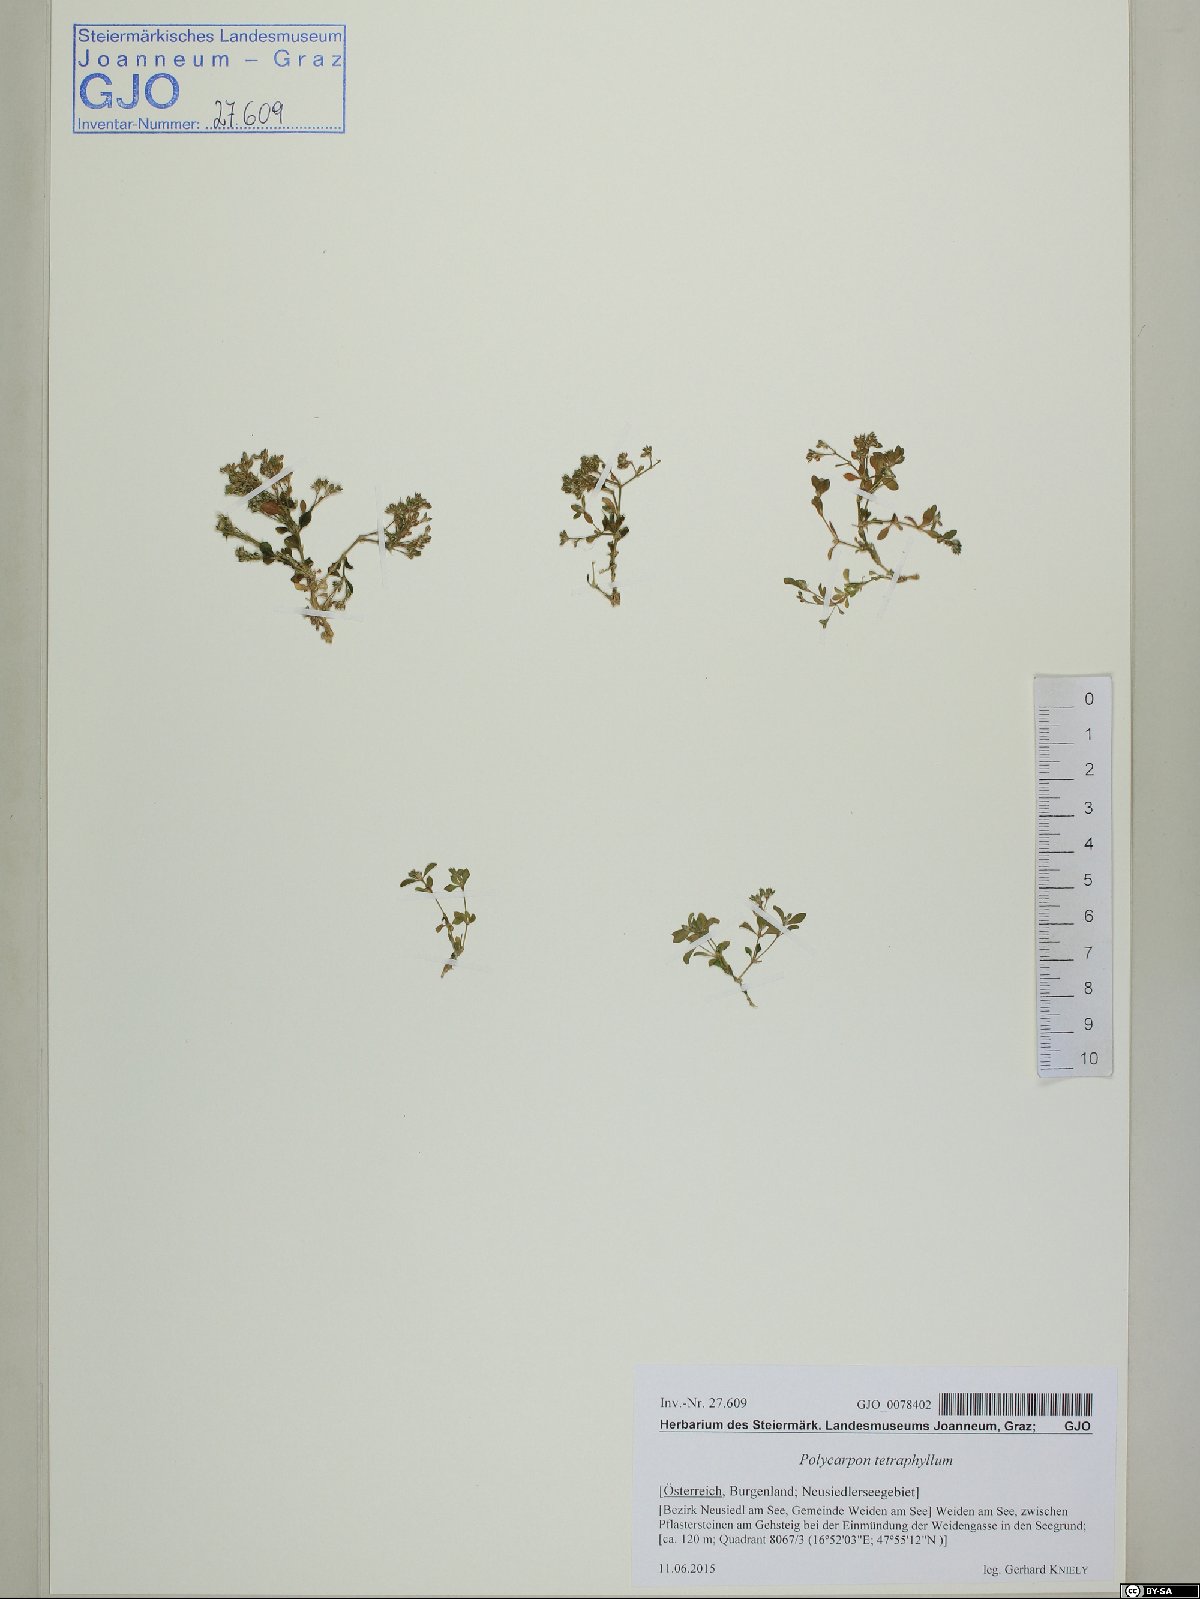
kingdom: Plantae
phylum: Tracheophyta
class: Magnoliopsida
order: Caryophyllales
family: Caryophyllaceae
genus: Polycarpon
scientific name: Polycarpon tetraphyllum
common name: Four-leaved all-seed
